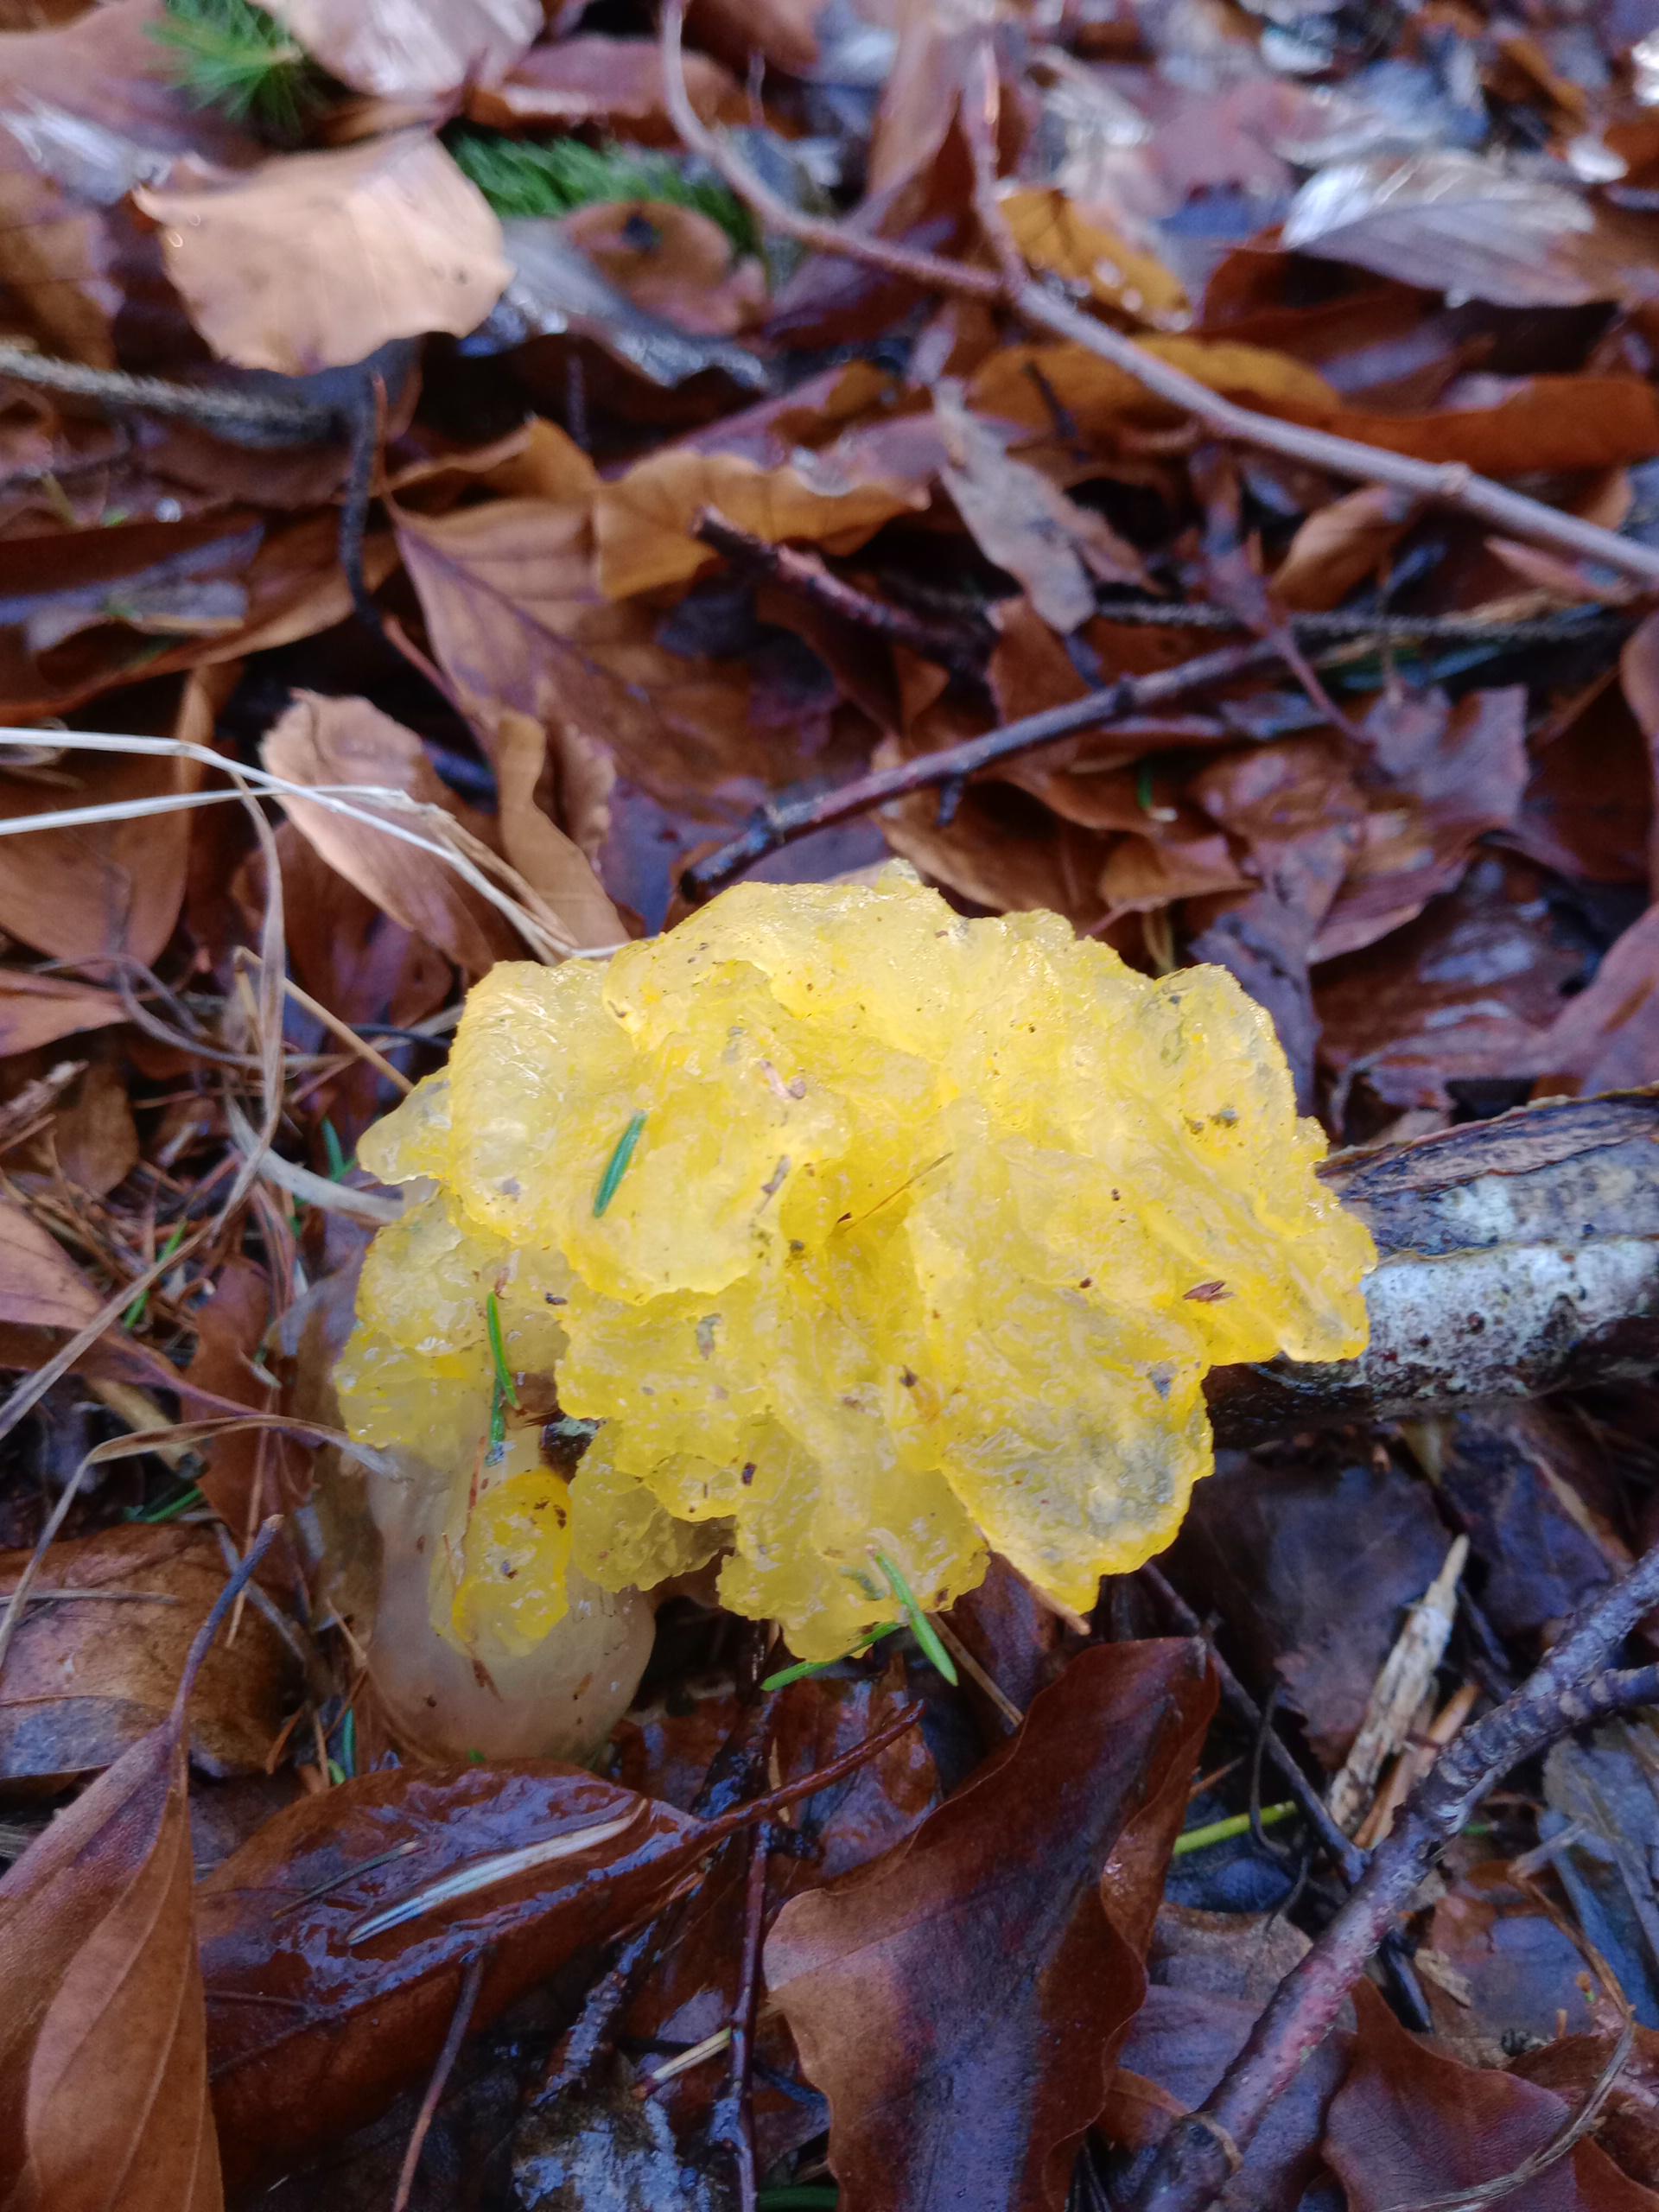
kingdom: Fungi
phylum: Basidiomycota
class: Tremellomycetes
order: Tremellales
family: Tremellaceae
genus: Tremella
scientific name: Tremella mesenterica
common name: gul bævresvamp
